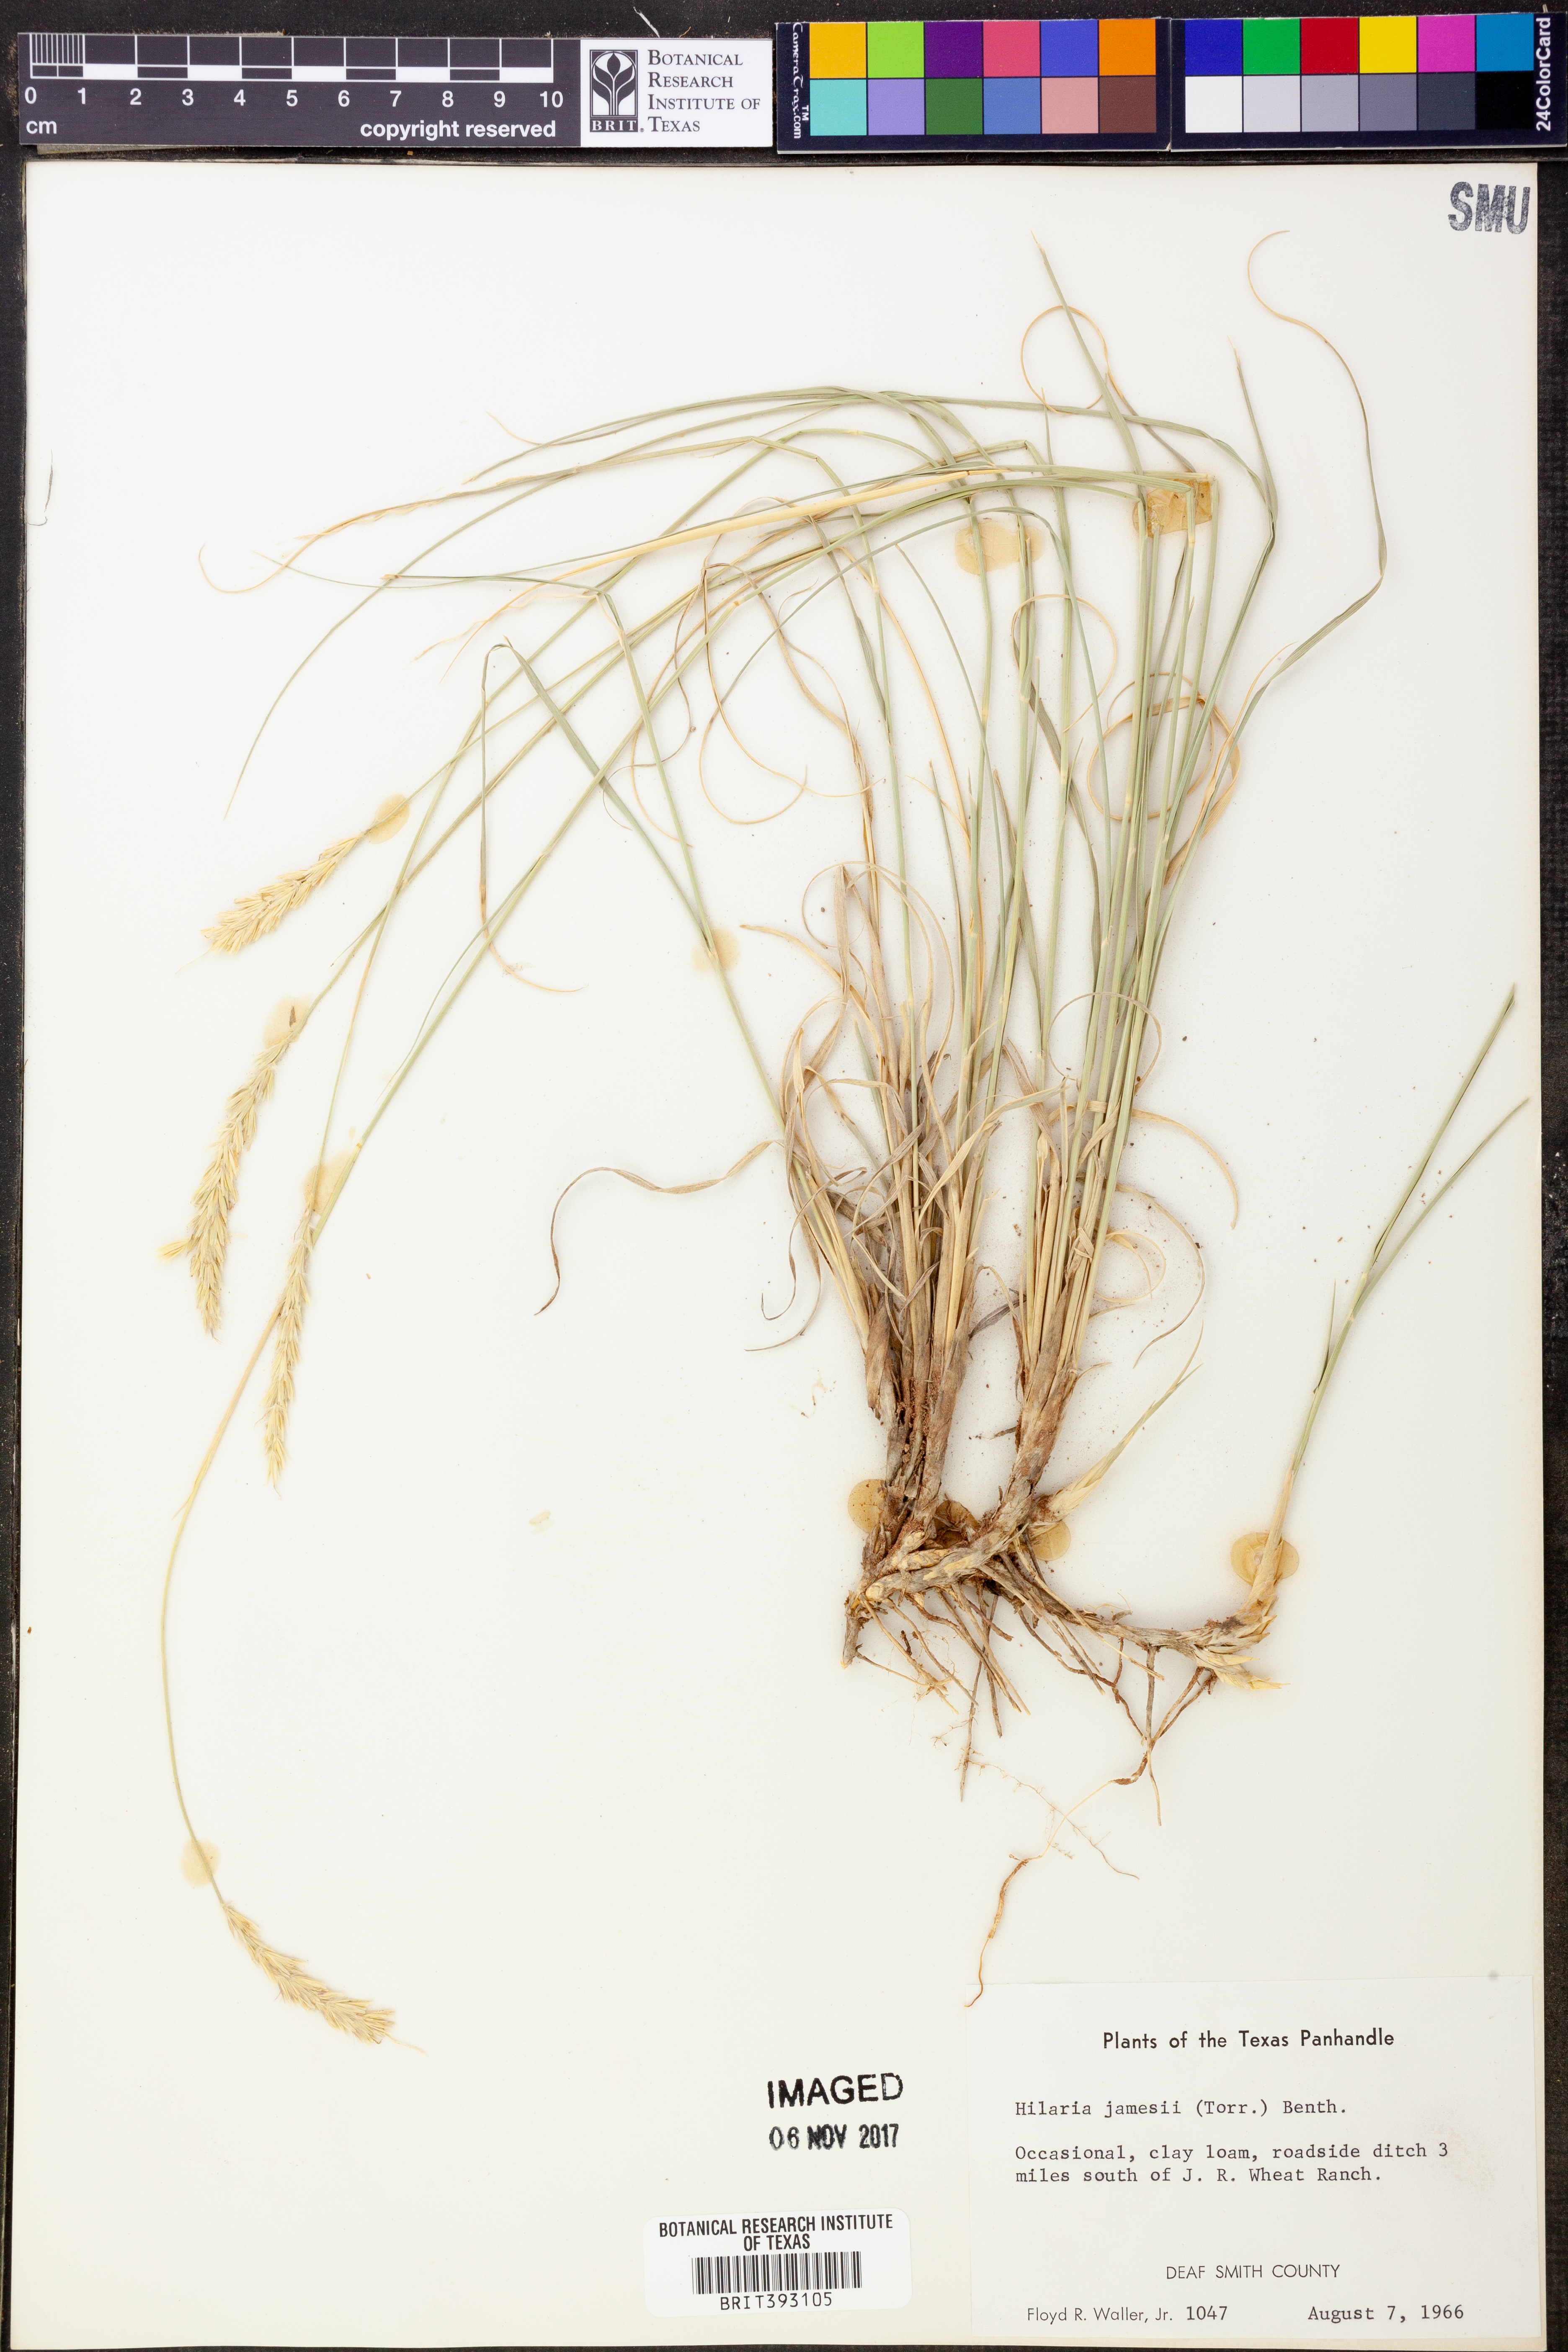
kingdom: Plantae
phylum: Tracheophyta
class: Liliopsida
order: Poales
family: Poaceae
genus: Hilaria
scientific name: Hilaria jamesii
